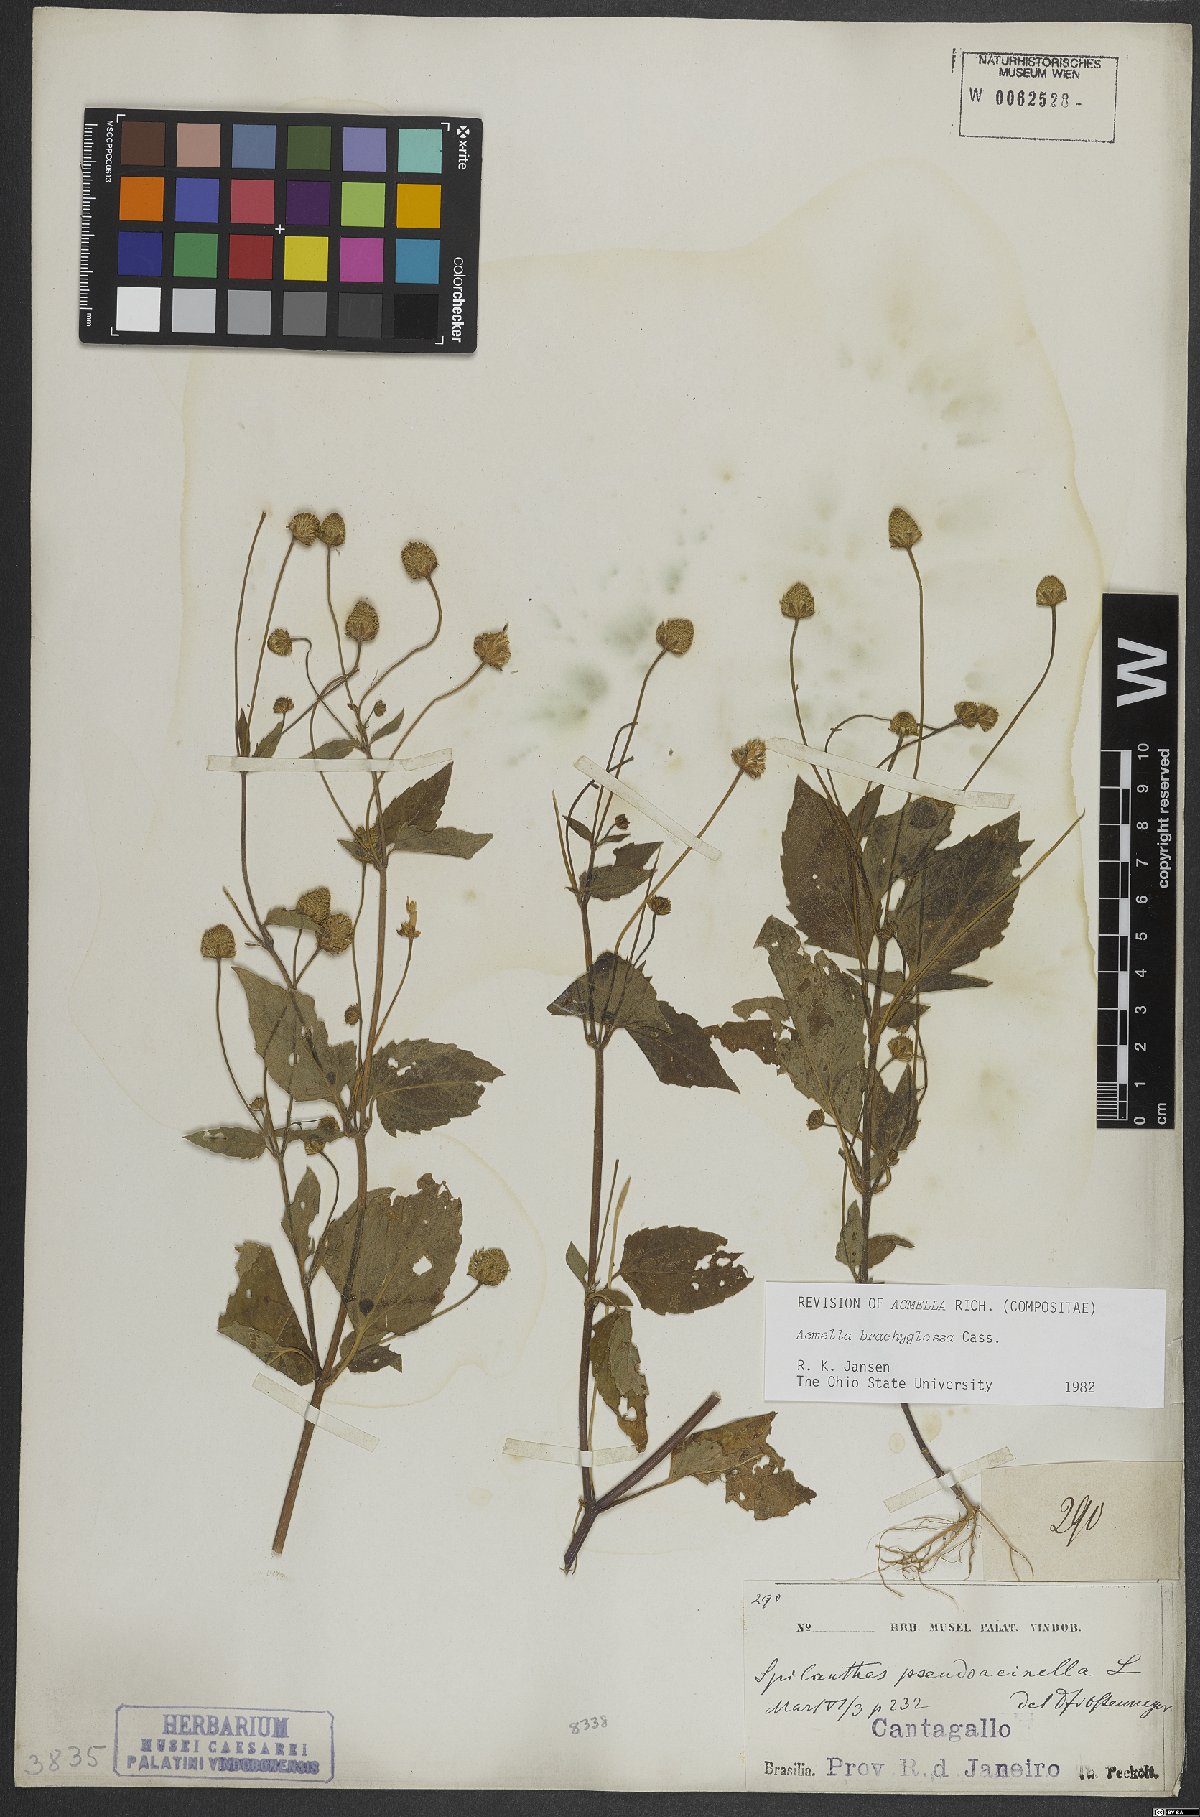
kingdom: Plantae
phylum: Tracheophyta
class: Magnoliopsida
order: Asterales
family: Asteraceae
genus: Acmella
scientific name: Acmella brachyglossa
